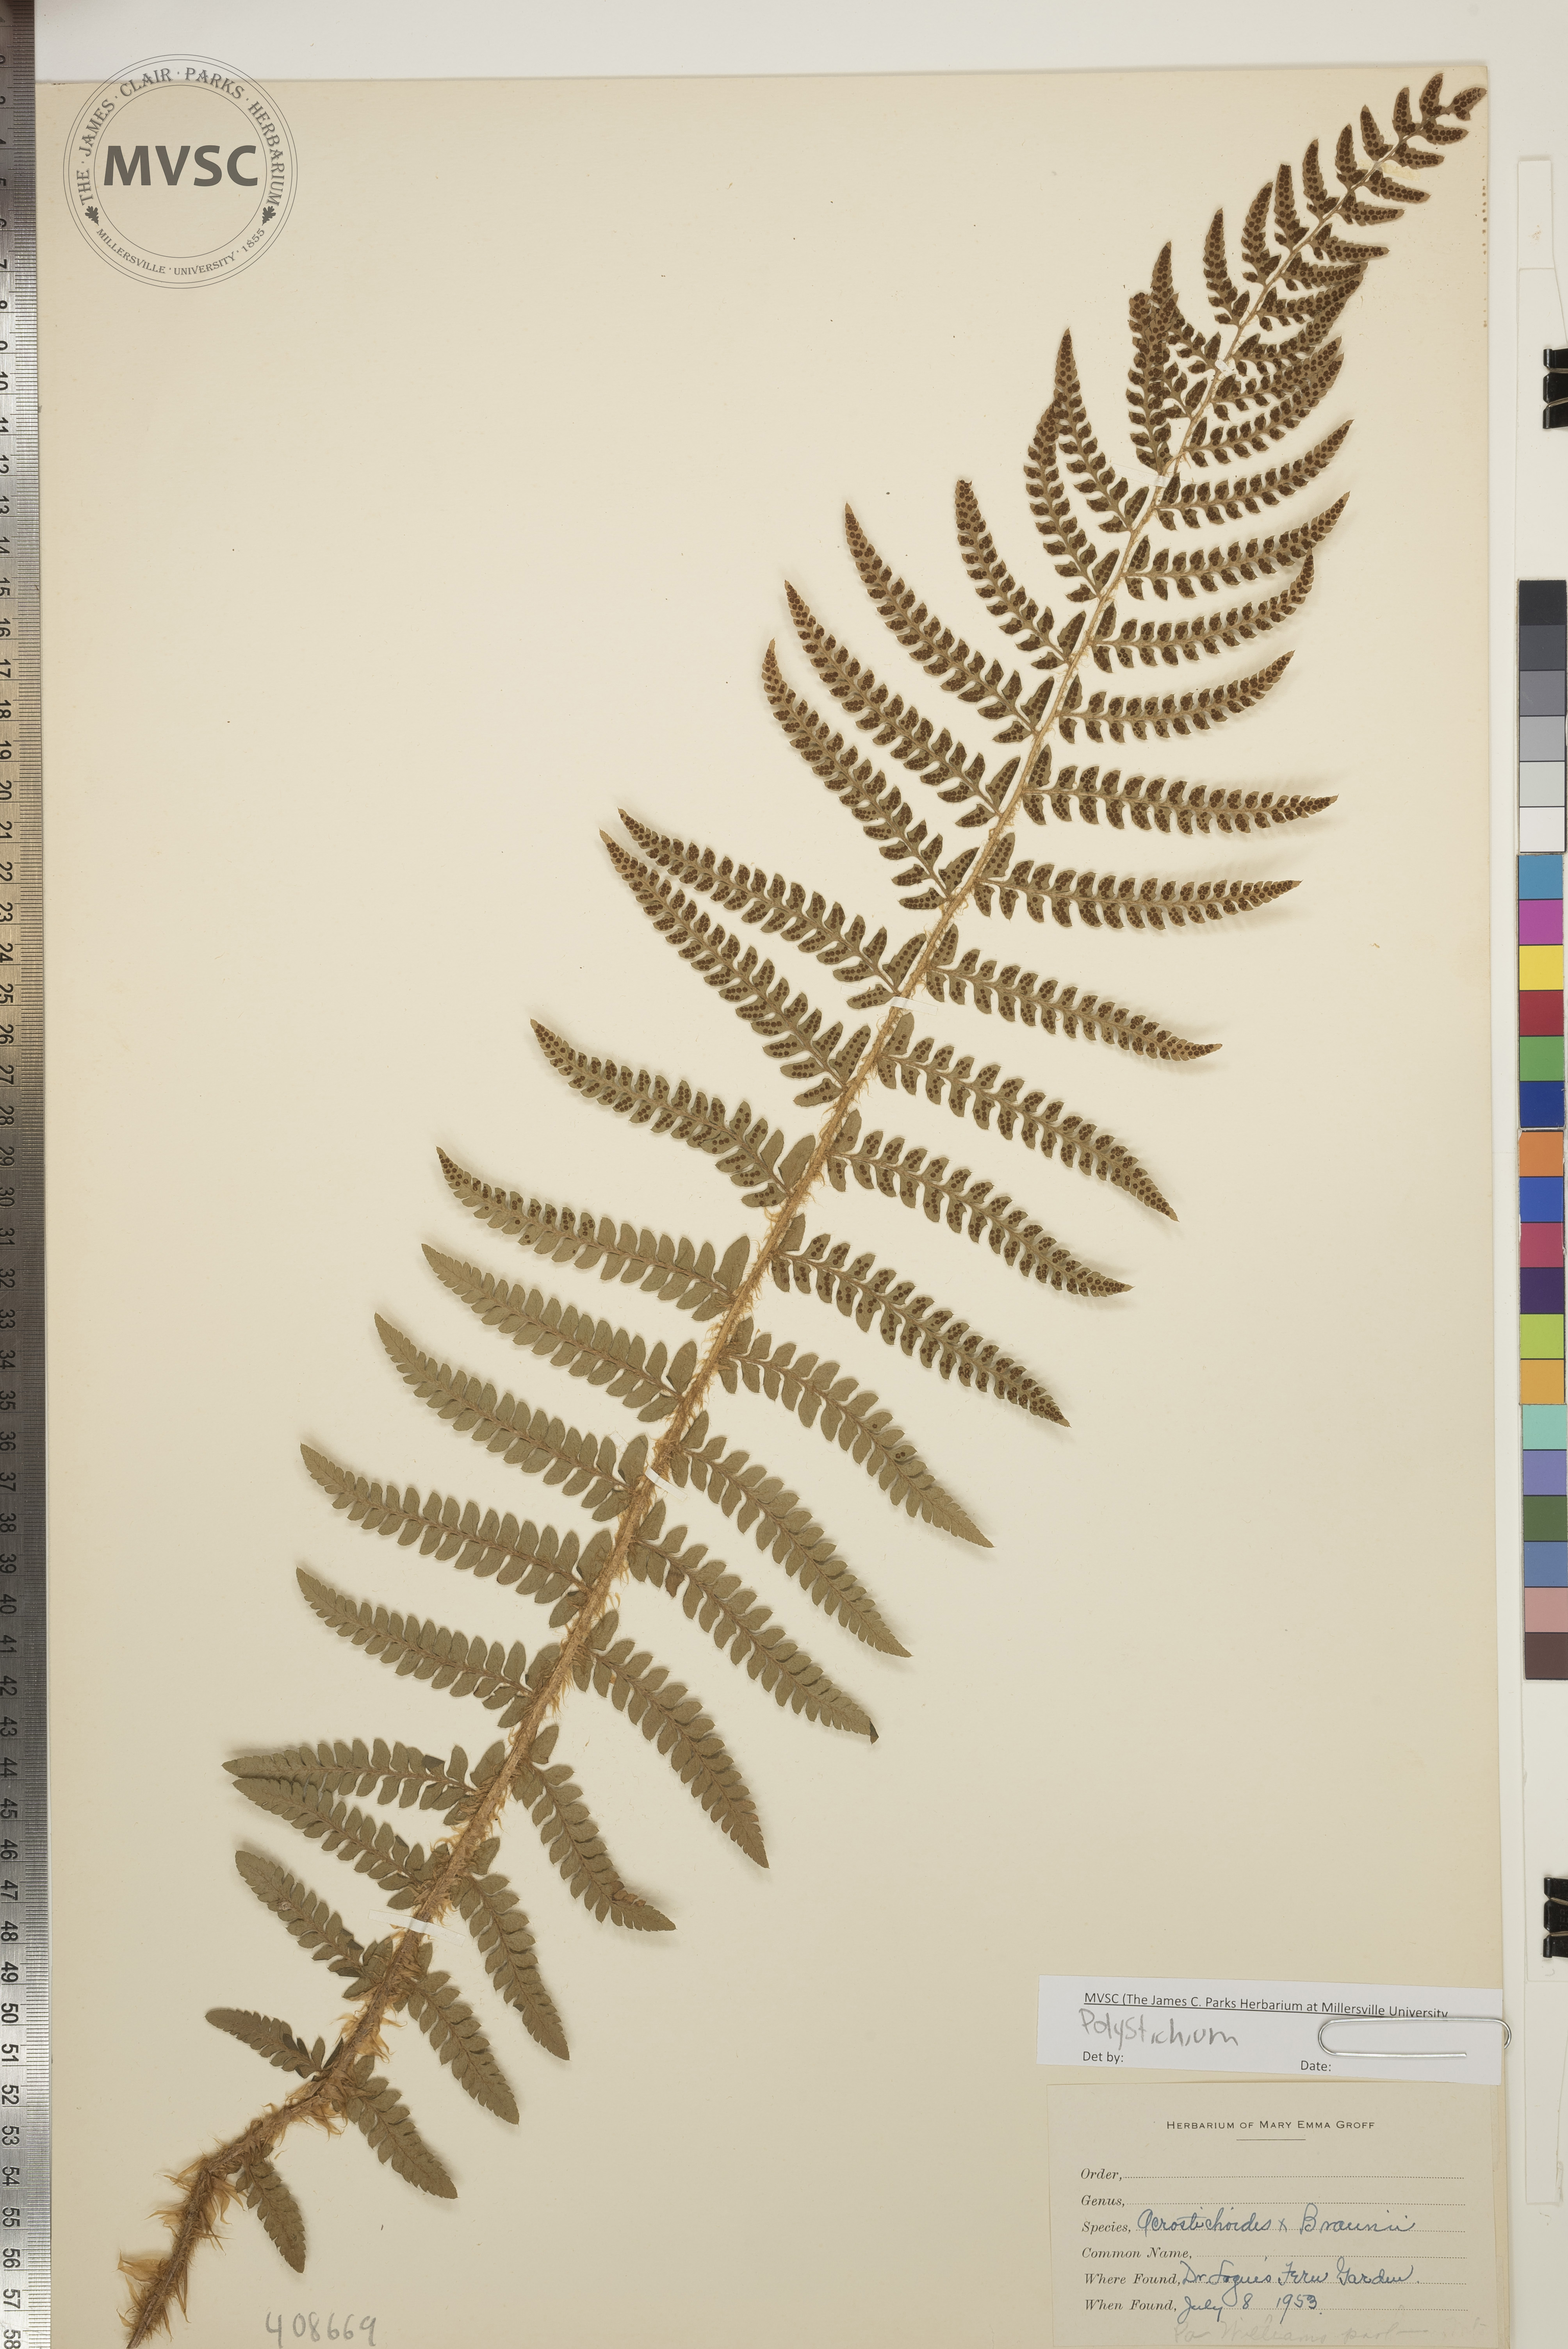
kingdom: Plantae
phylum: Tracheophyta
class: Polypodiopsida
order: Polypodiales
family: Dryopteridaceae
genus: Polystichum
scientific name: Polystichum
